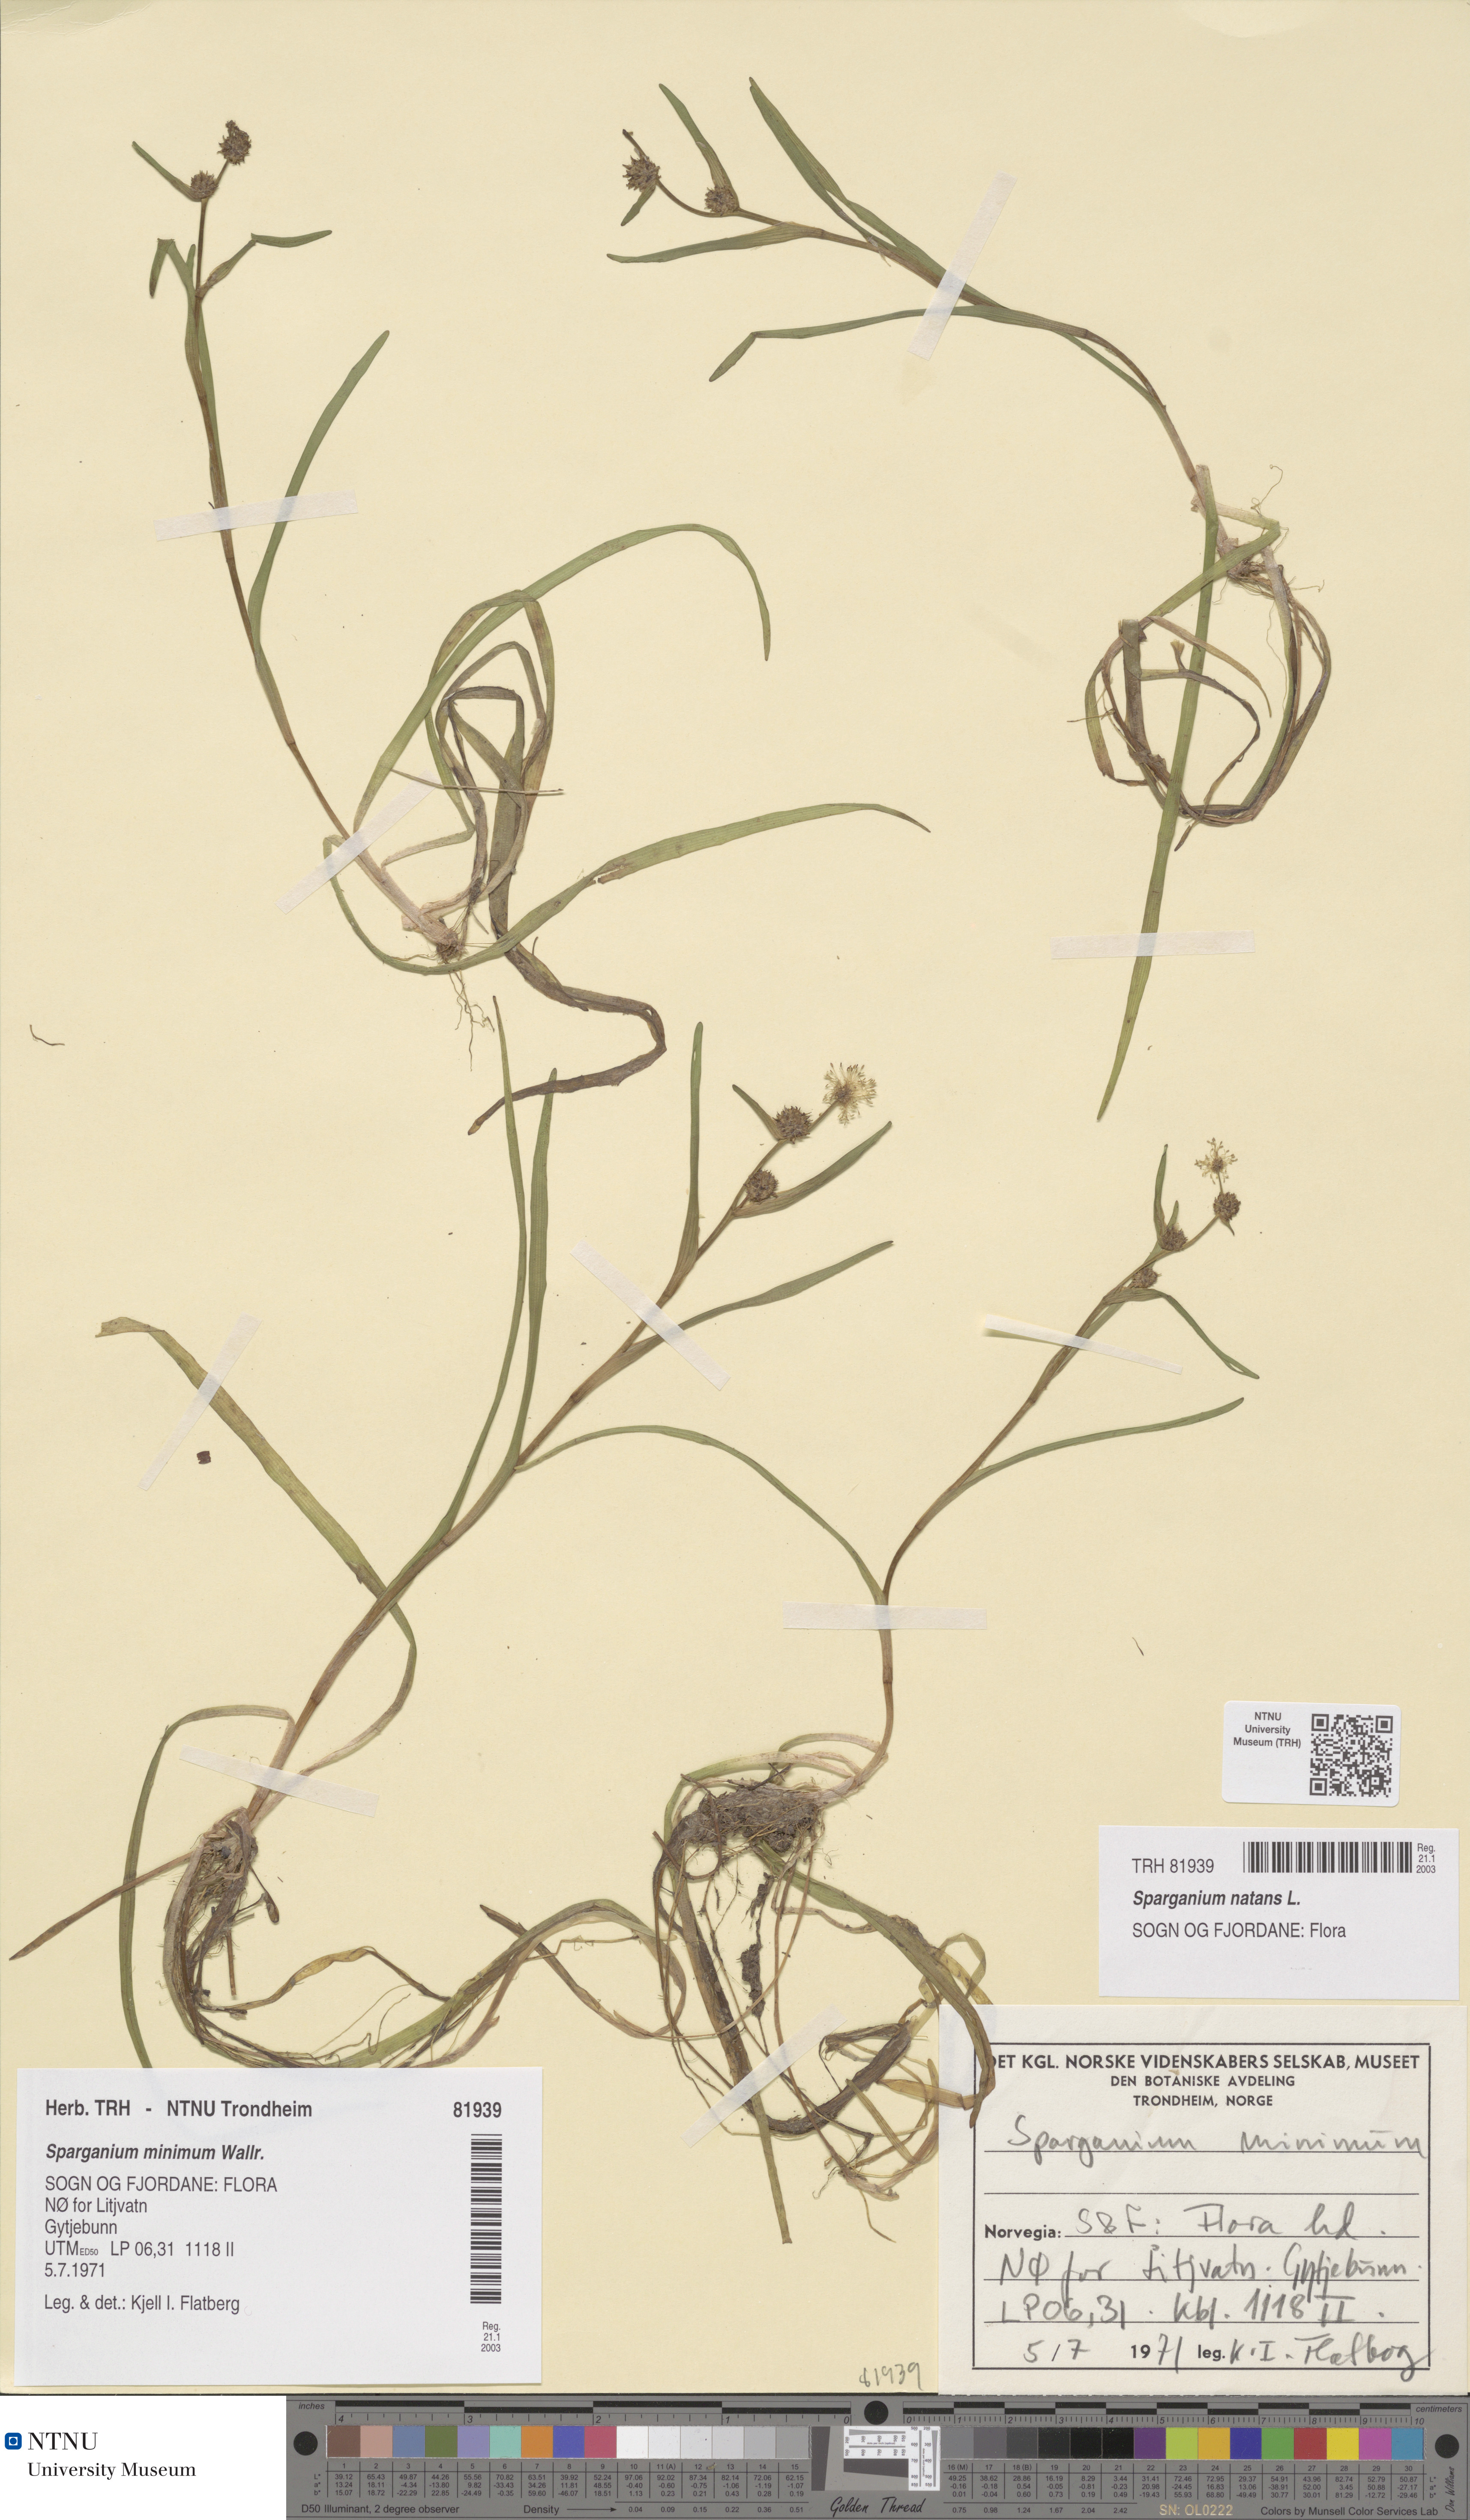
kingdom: Plantae
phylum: Tracheophyta
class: Liliopsida
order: Poales
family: Typhaceae
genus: Sparganium
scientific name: Sparganium natans
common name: Least bur-reed
